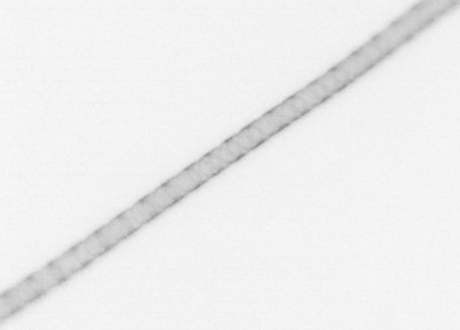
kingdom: Chromista
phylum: Ochrophyta
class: Bacillariophyceae
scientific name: Bacillariophyceae
